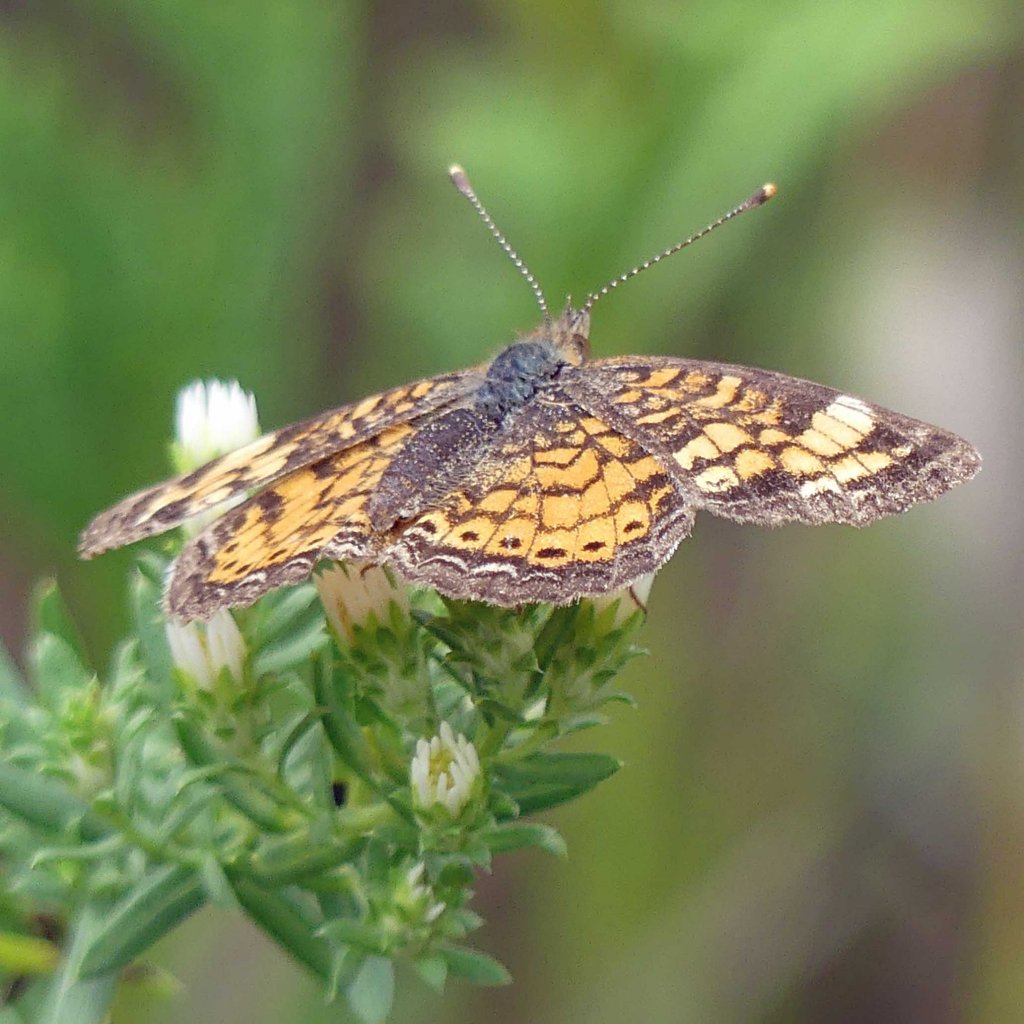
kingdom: Animalia
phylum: Arthropoda
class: Insecta
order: Lepidoptera
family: Nymphalidae
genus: Phyciodes
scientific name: Phyciodes tharos
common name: Northern Crescent
